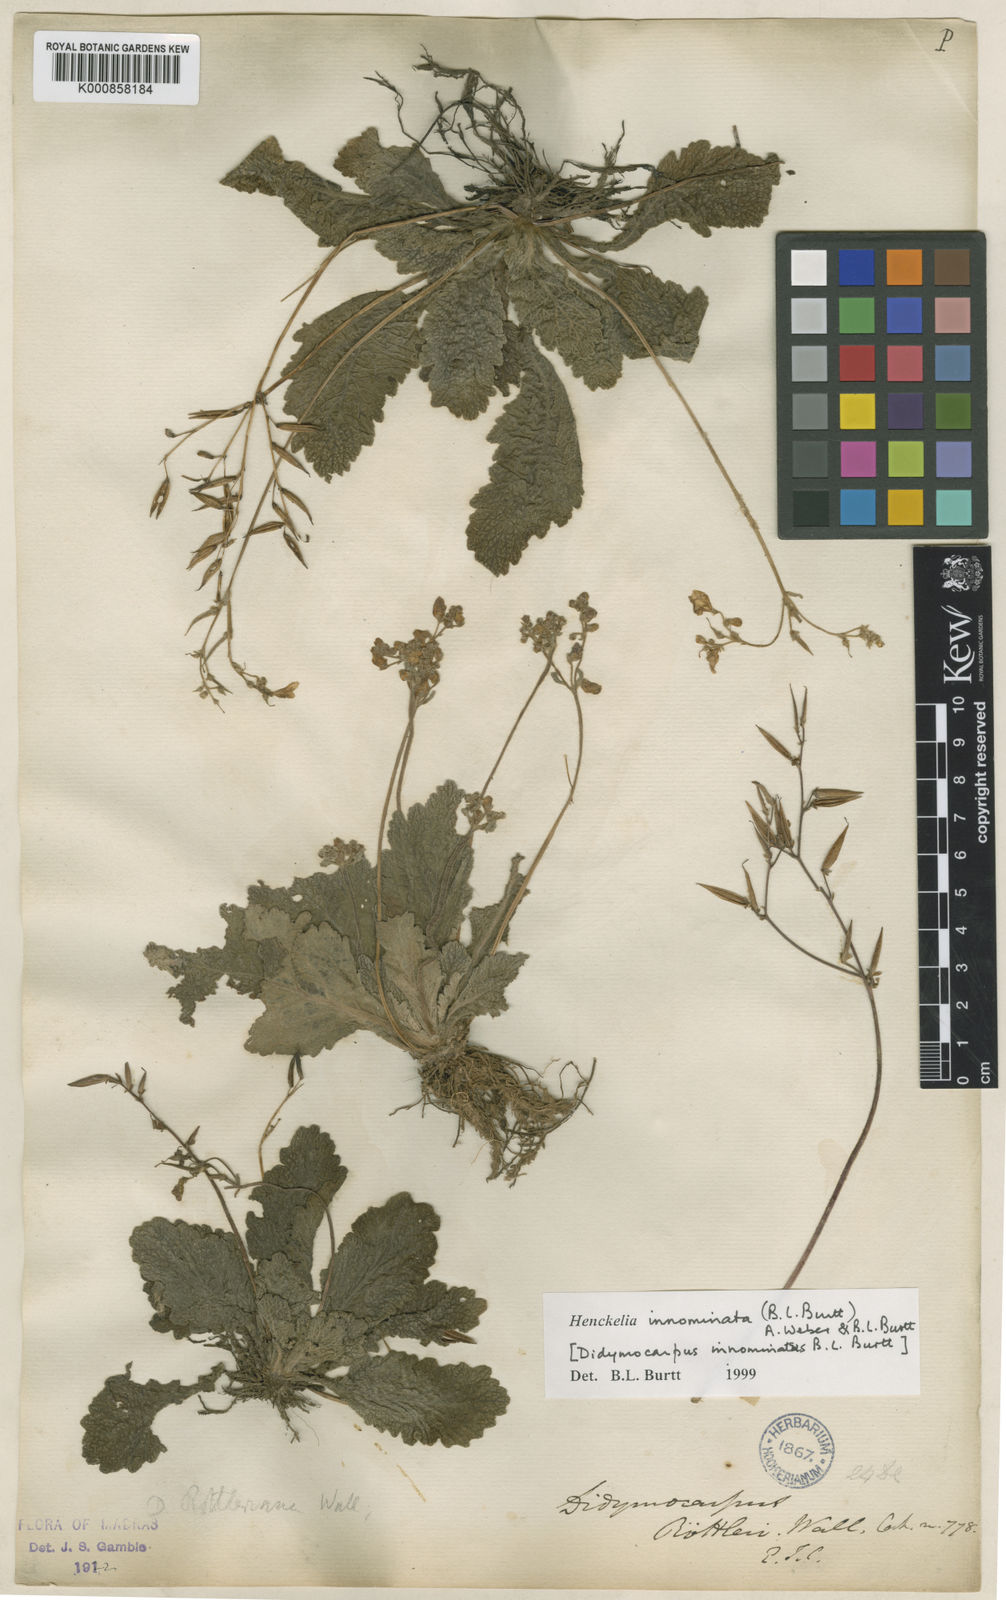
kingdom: Plantae
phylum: Tracheophyta
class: Magnoliopsida
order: Lamiales
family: Gesneriaceae
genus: Henckelia
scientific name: Henckelia innominata
